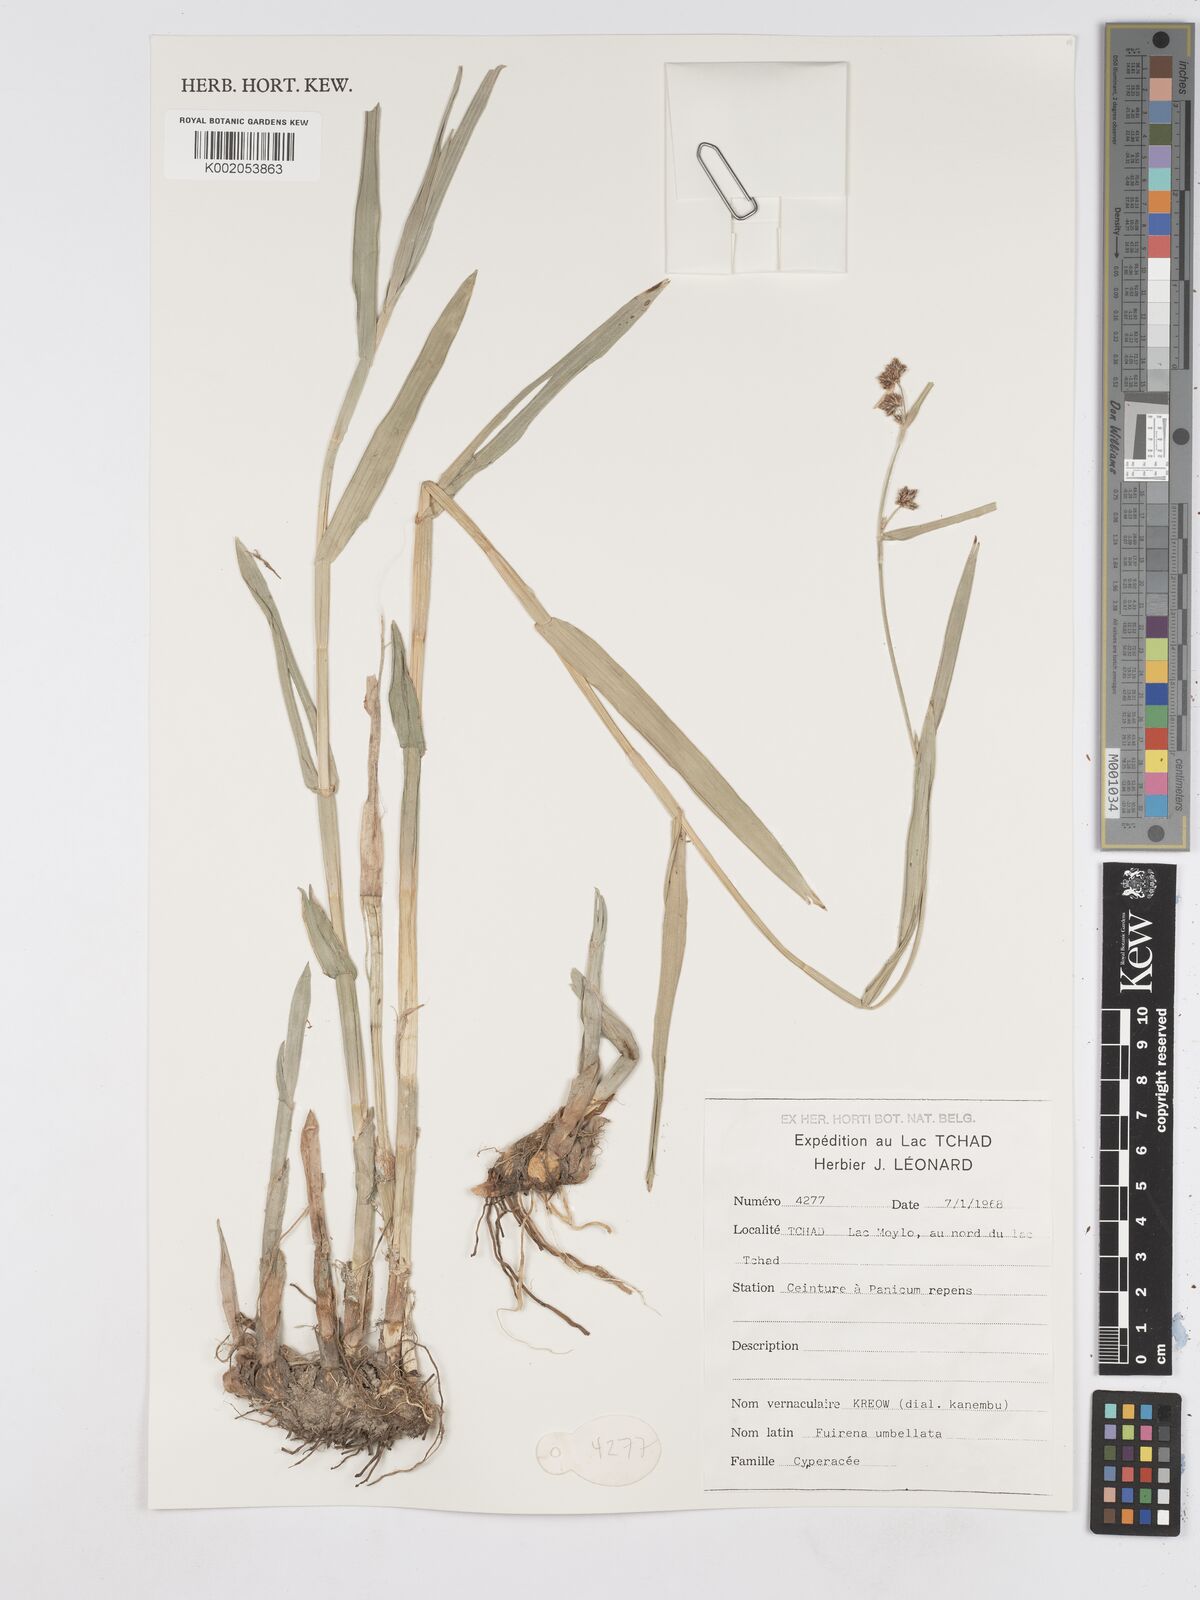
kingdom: Plantae
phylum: Tracheophyta
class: Liliopsida
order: Poales
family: Cyperaceae
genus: Fuirena
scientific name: Fuirena umbellata
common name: Yefen
